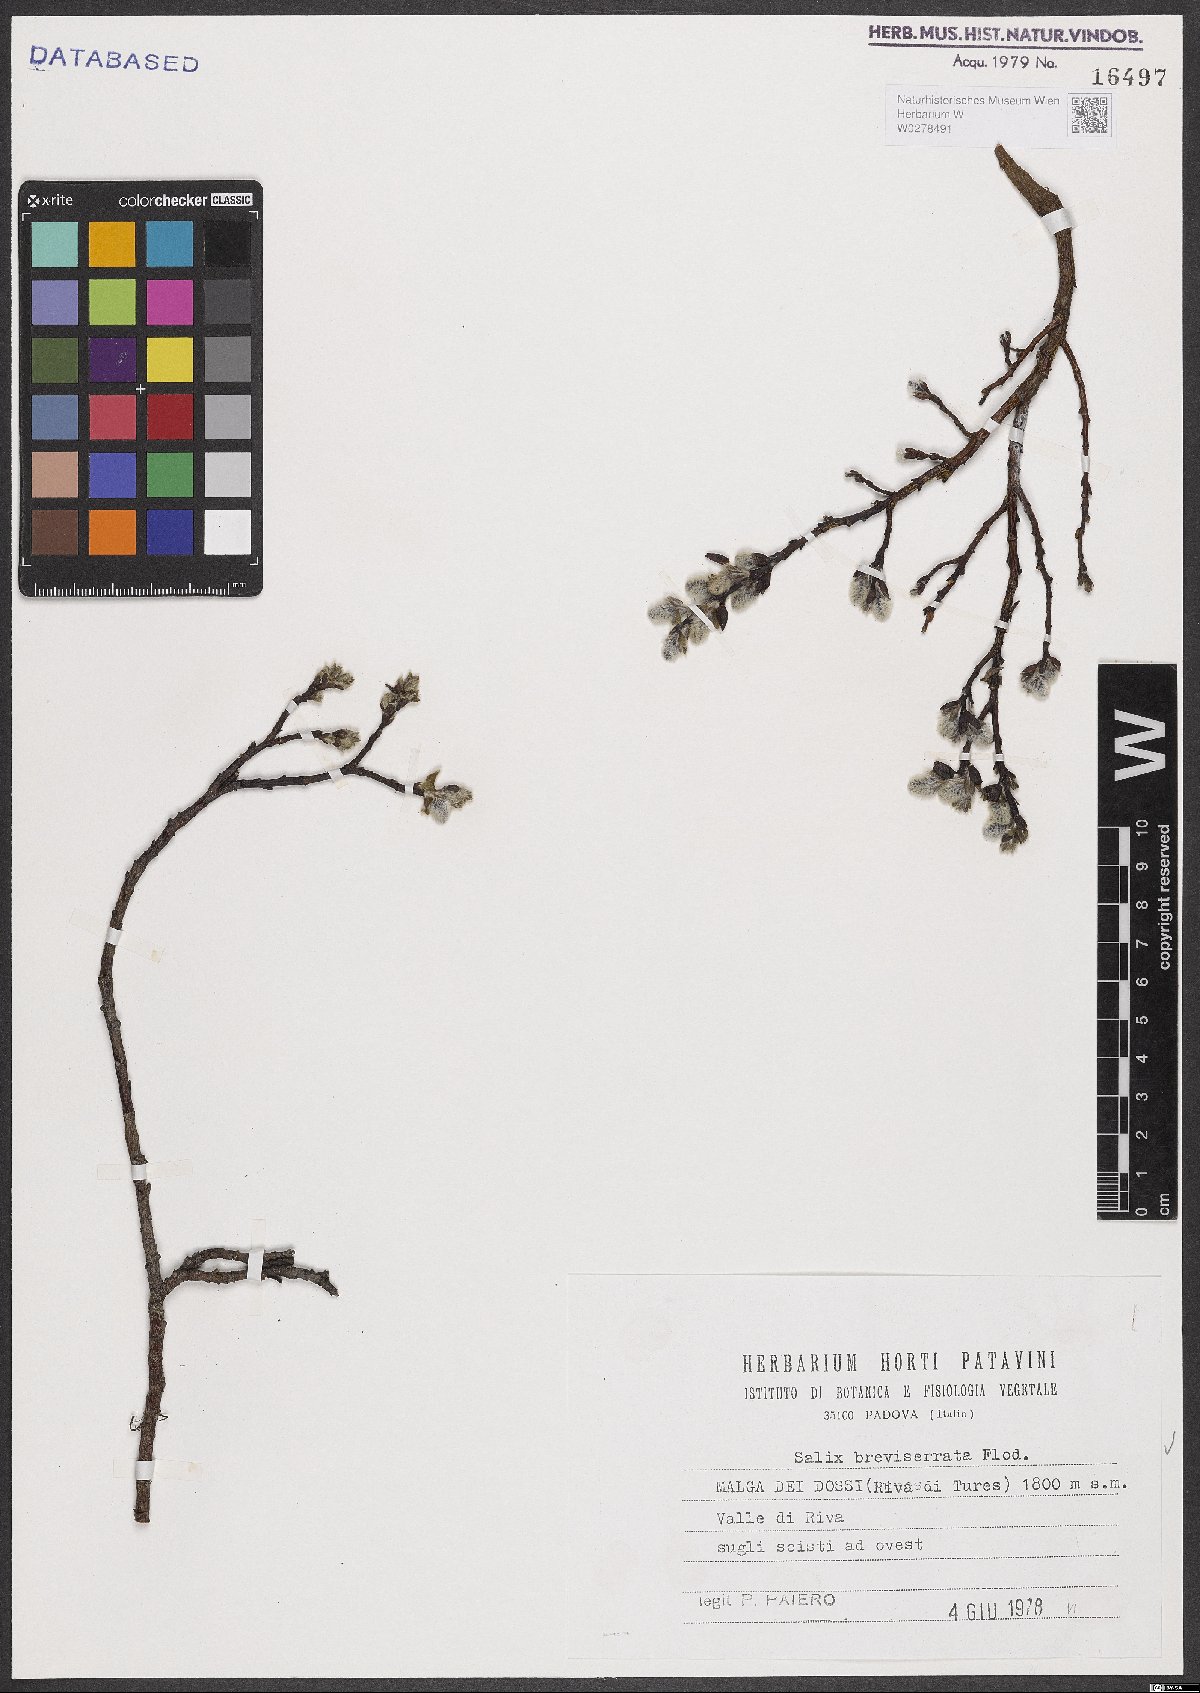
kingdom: Plantae
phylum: Tracheophyta
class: Magnoliopsida
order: Malpighiales
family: Salicaceae
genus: Salix
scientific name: Salix breviserrata
